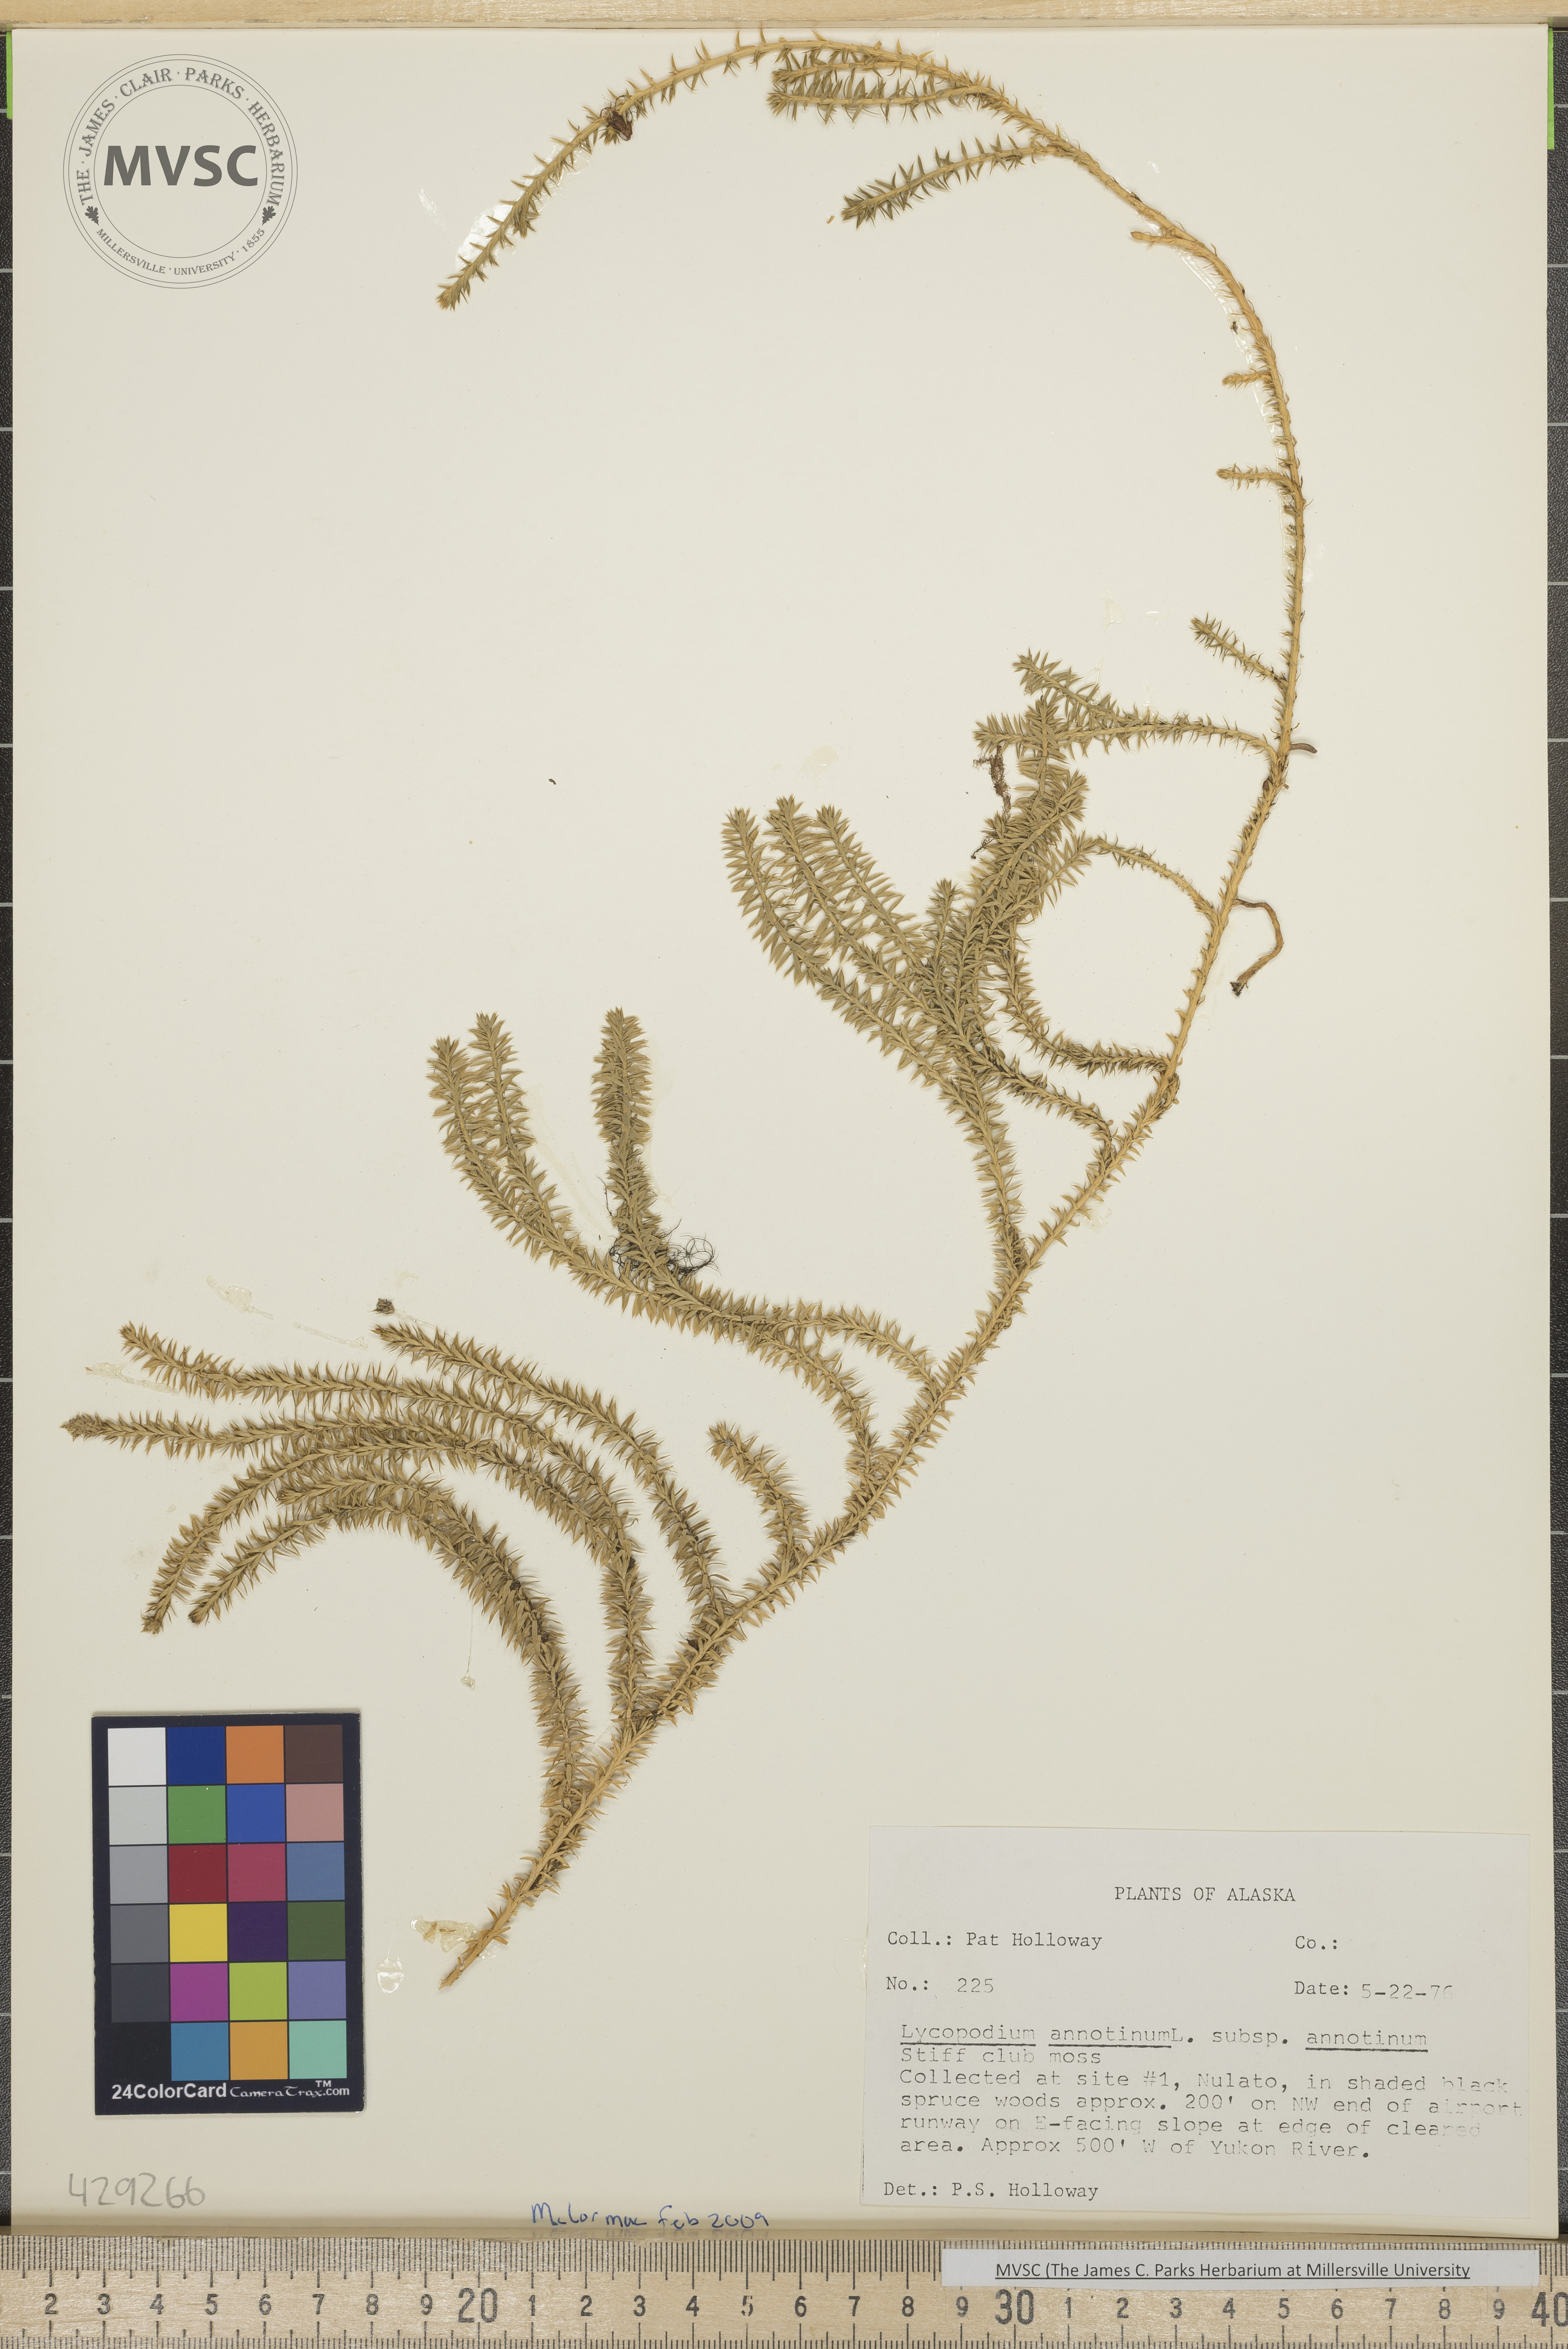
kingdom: Plantae
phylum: Tracheophyta
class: Lycopodiopsida
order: Lycopodiales
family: Lycopodiaceae
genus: Spinulum
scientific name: Spinulum annotinum
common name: Interrupted club-moss
